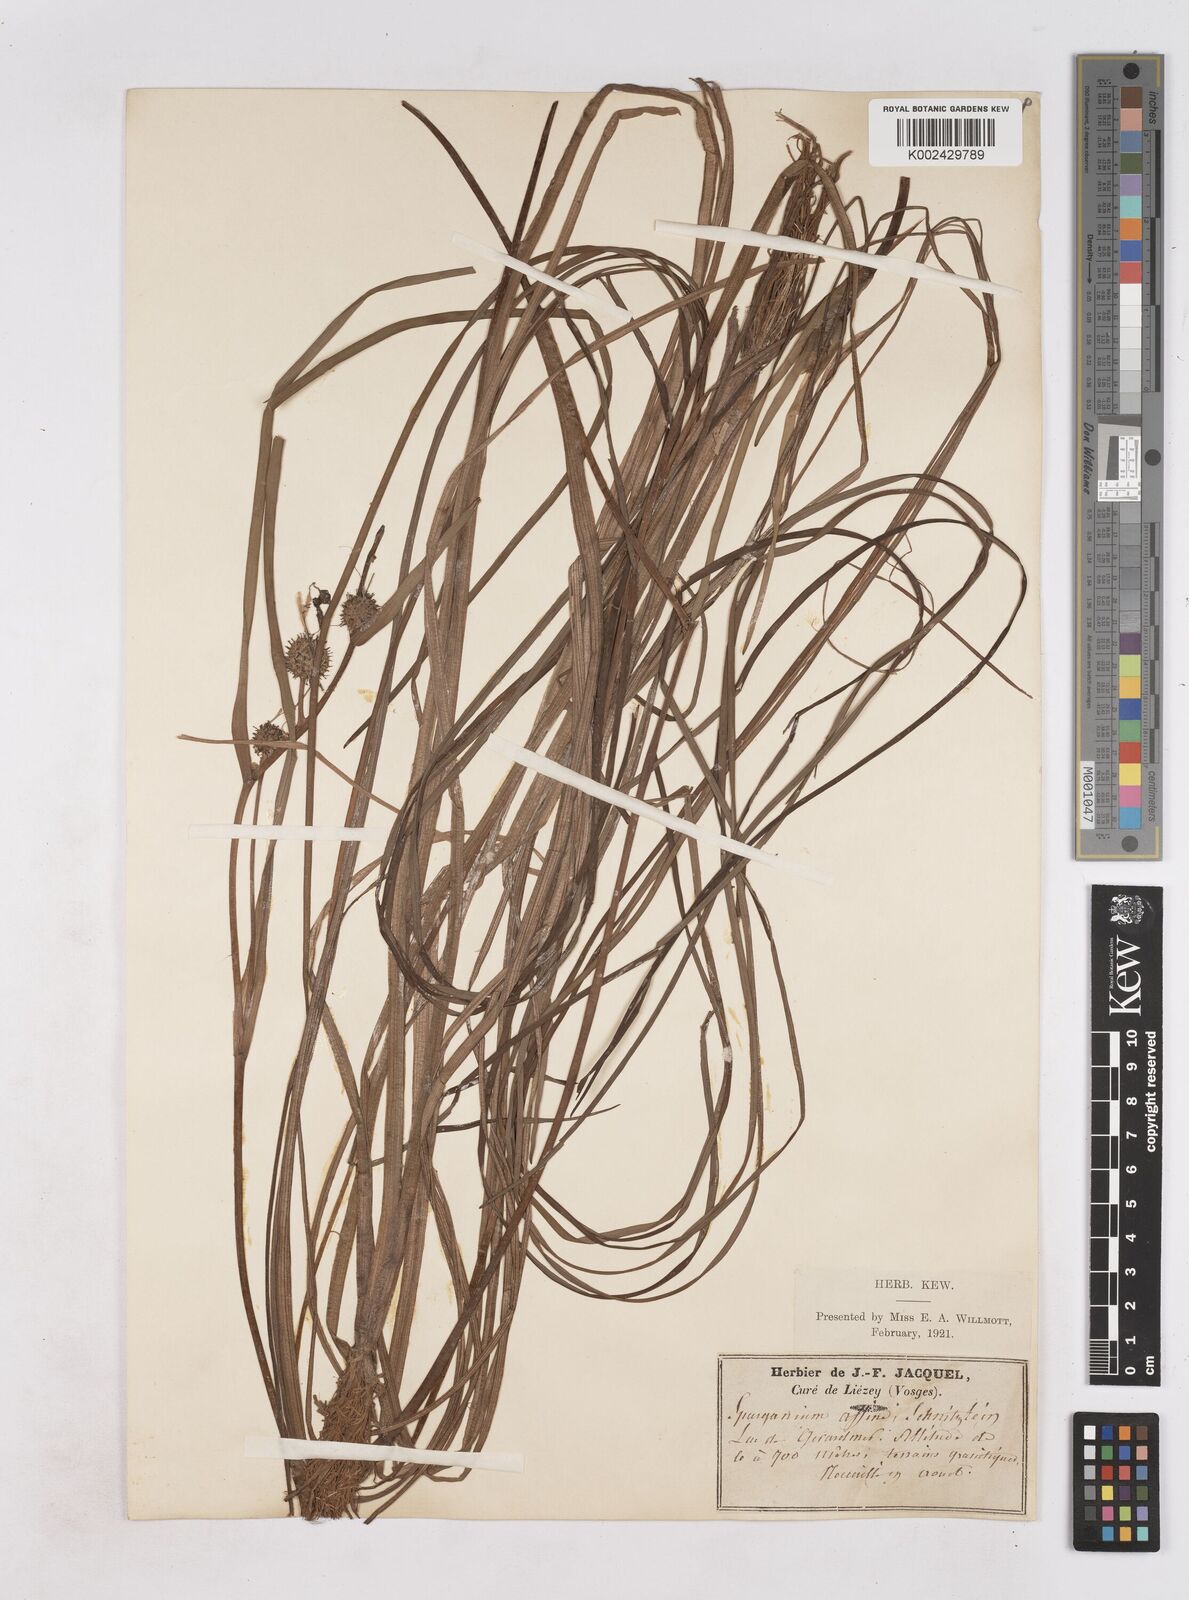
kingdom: Plantae
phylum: Tracheophyta
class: Liliopsida
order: Poales
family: Typhaceae
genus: Sparganium
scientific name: Sparganium angustifolium
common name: Floating bur-reed
